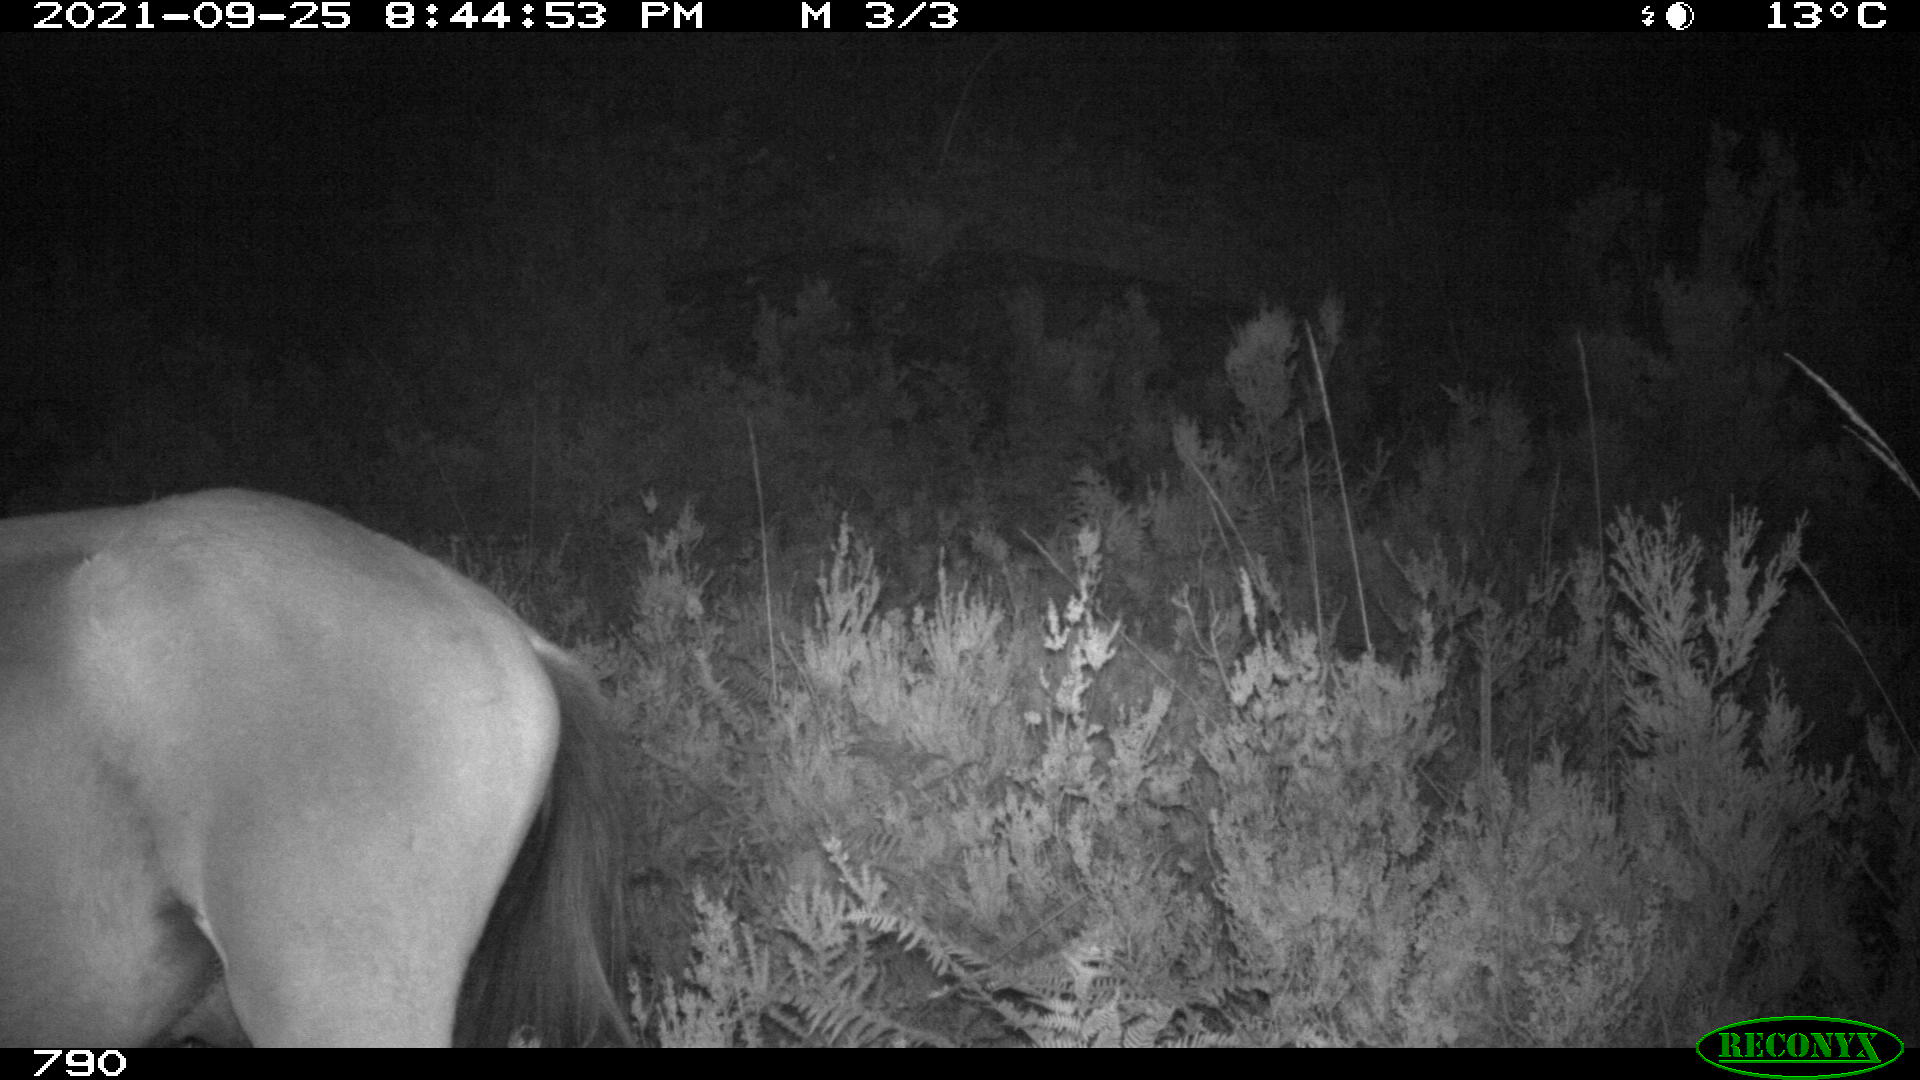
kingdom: Animalia
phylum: Chordata
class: Mammalia
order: Perissodactyla
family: Equidae
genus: Equus
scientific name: Equus caballus
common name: Horse
